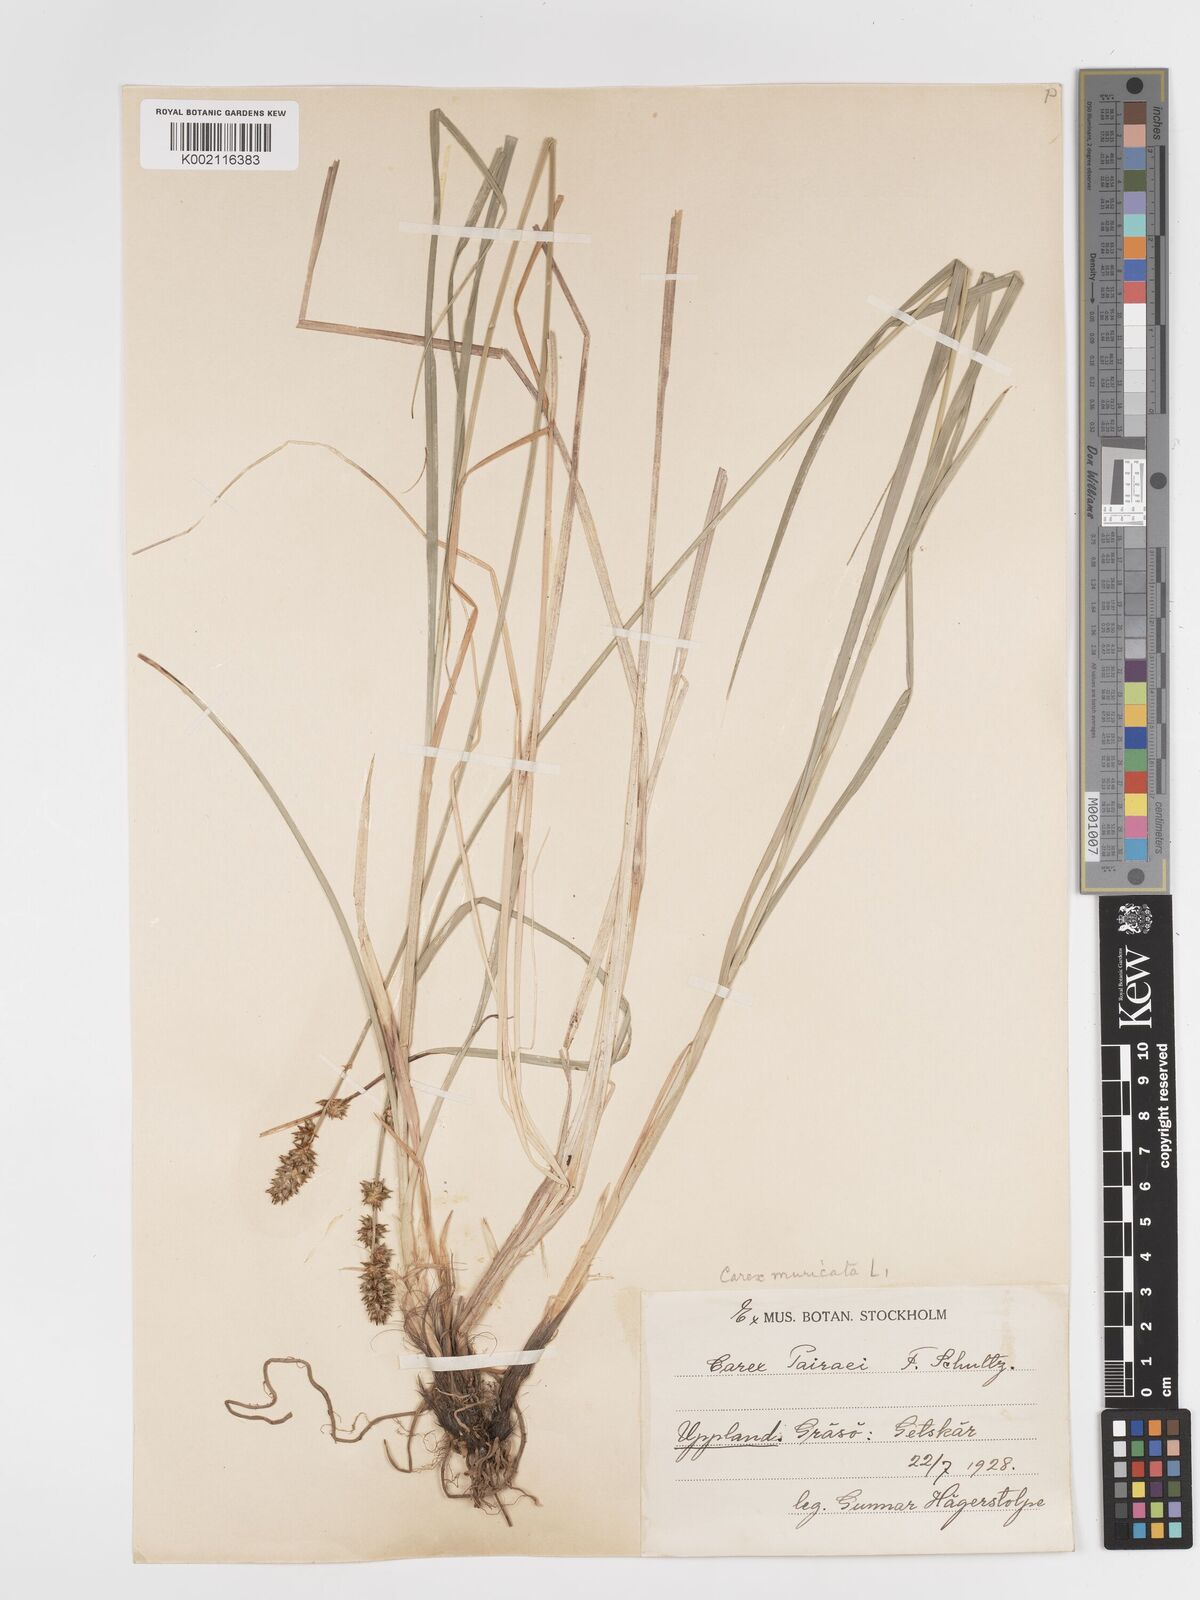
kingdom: Plantae
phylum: Tracheophyta
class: Liliopsida
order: Poales
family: Cyperaceae
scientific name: Cyperaceae
